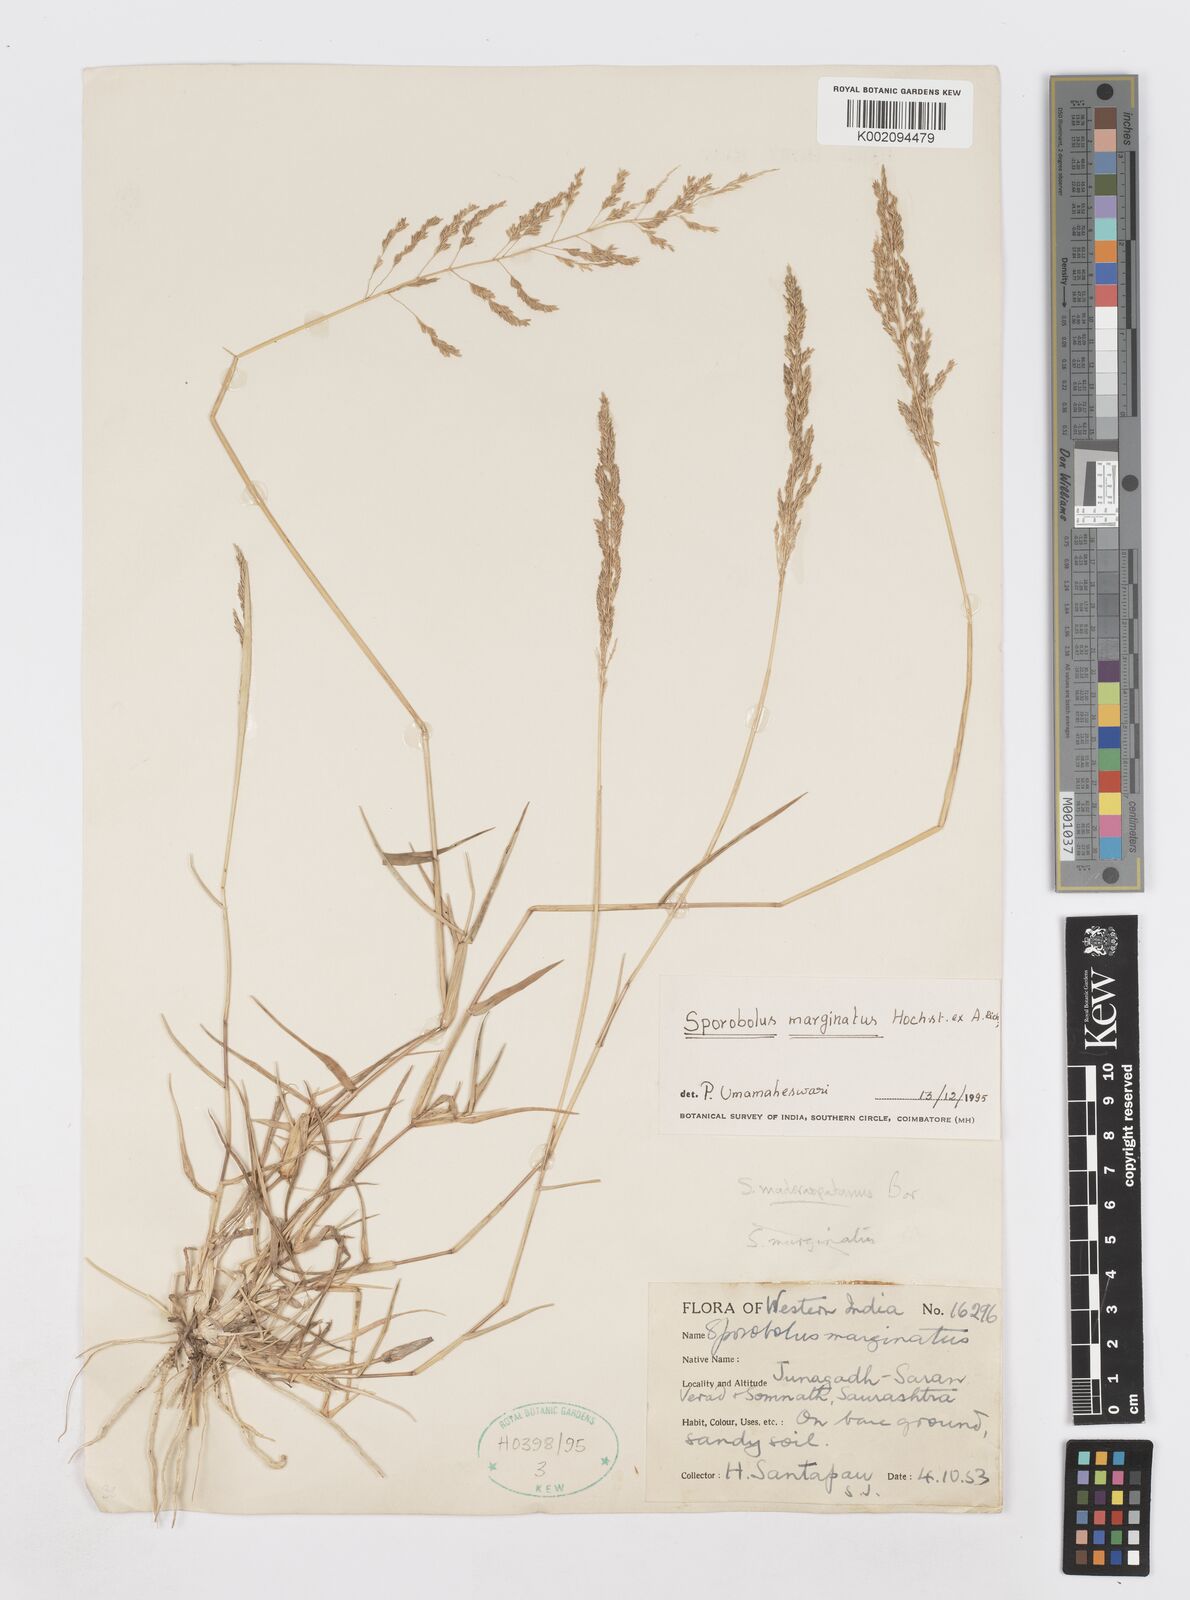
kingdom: Plantae
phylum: Tracheophyta
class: Liliopsida
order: Poales
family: Poaceae
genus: Sporobolus
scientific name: Sporobolus ioclados
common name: Pan dropseed
